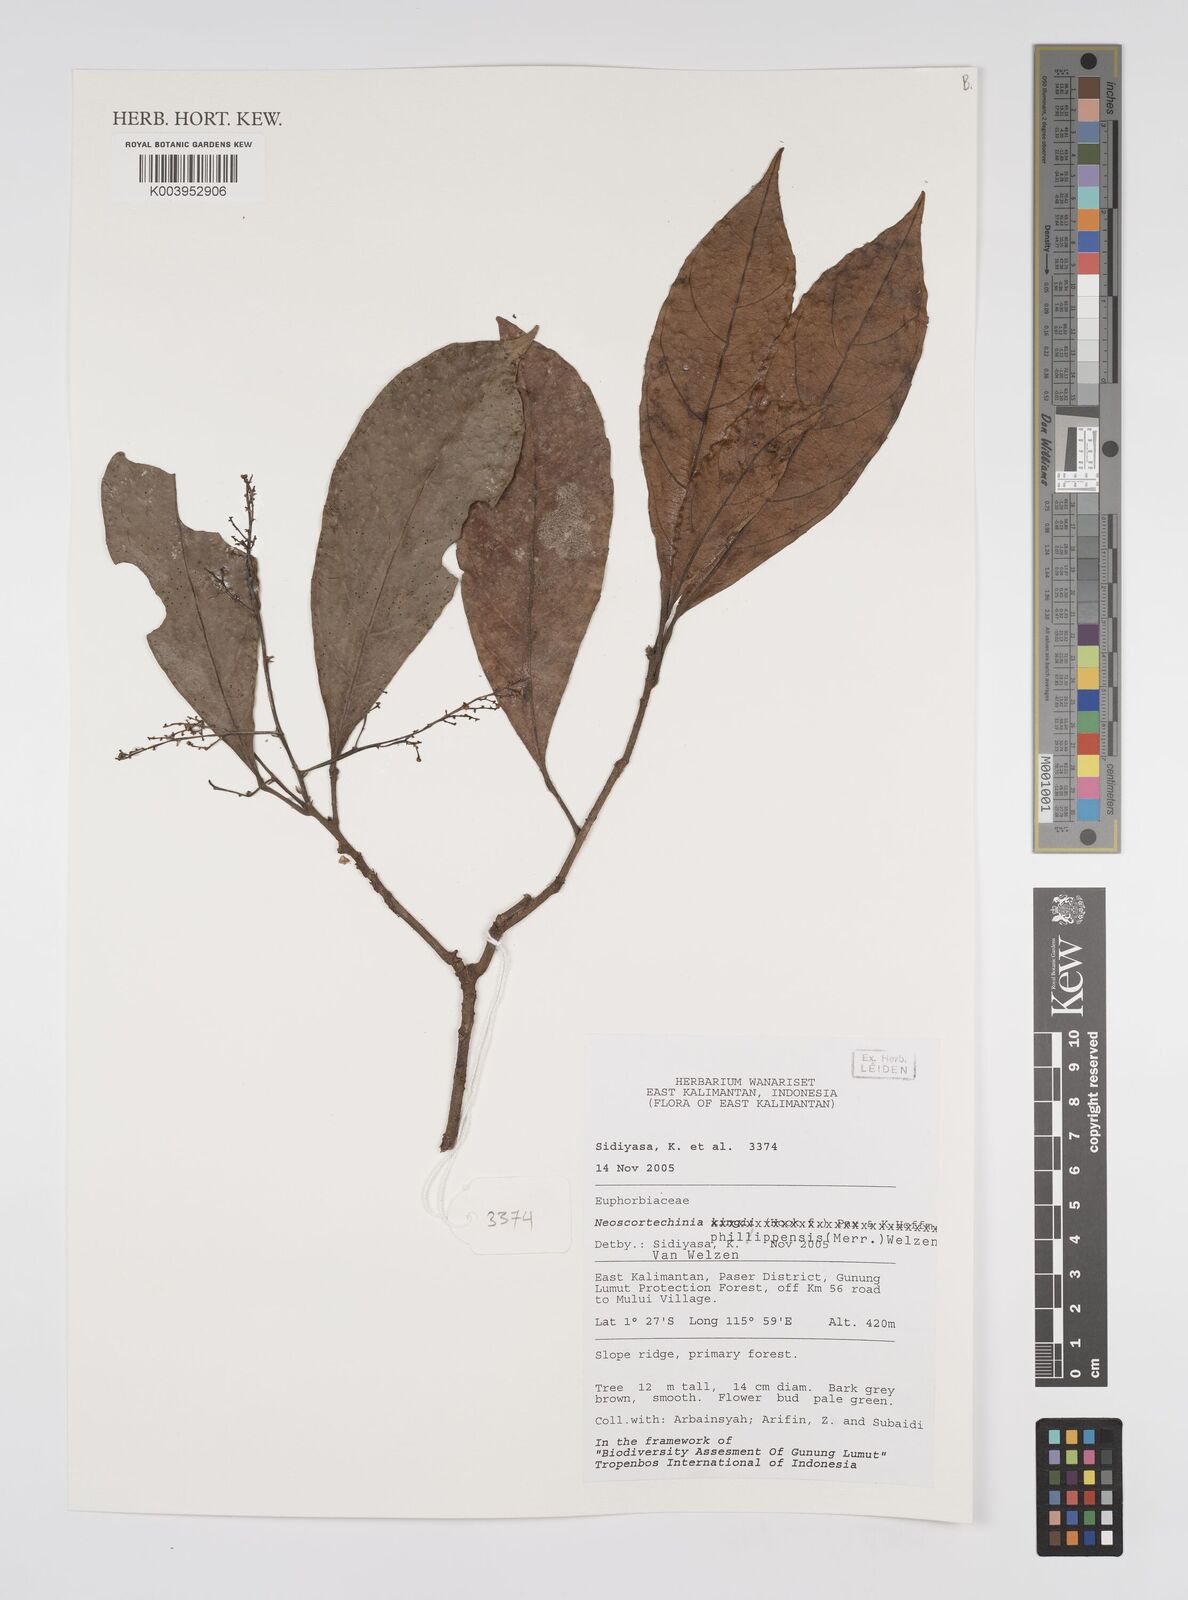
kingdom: Plantae
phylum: Tracheophyta
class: Magnoliopsida
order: Malpighiales
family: Euphorbiaceae
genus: Neoscortechinia
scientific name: Neoscortechinia philippinensis
